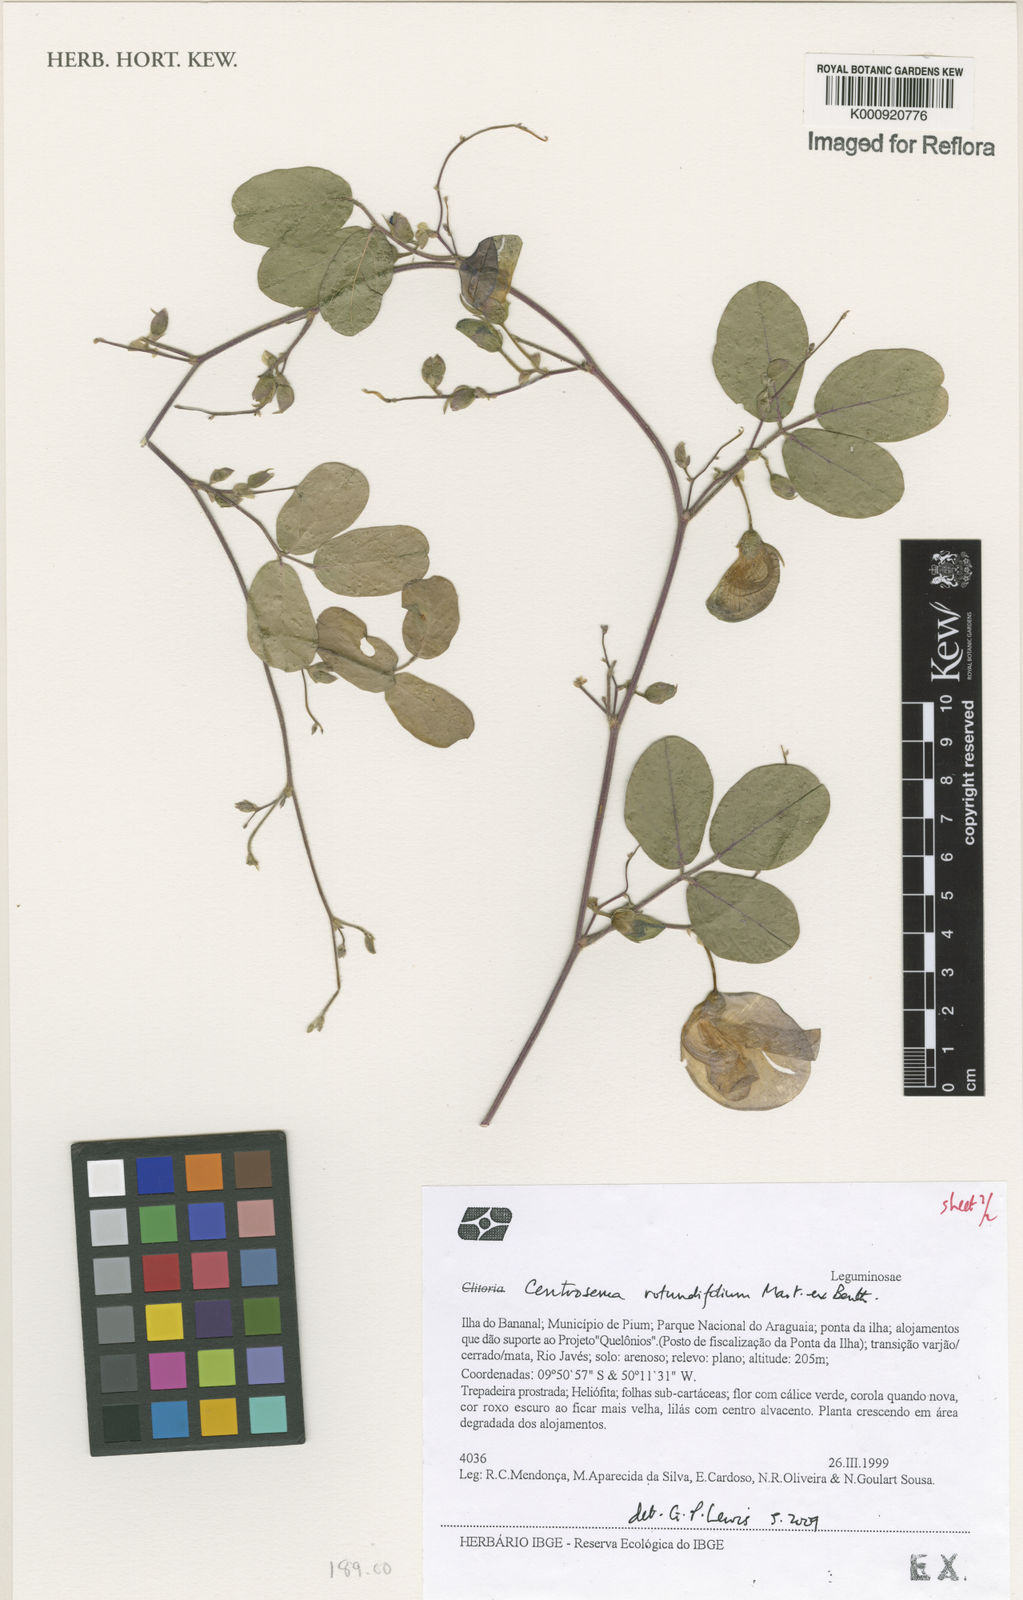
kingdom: Plantae
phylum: Tracheophyta
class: Magnoliopsida
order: Fabales
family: Fabaceae
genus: Centrosema
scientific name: Centrosema rotundifolium
